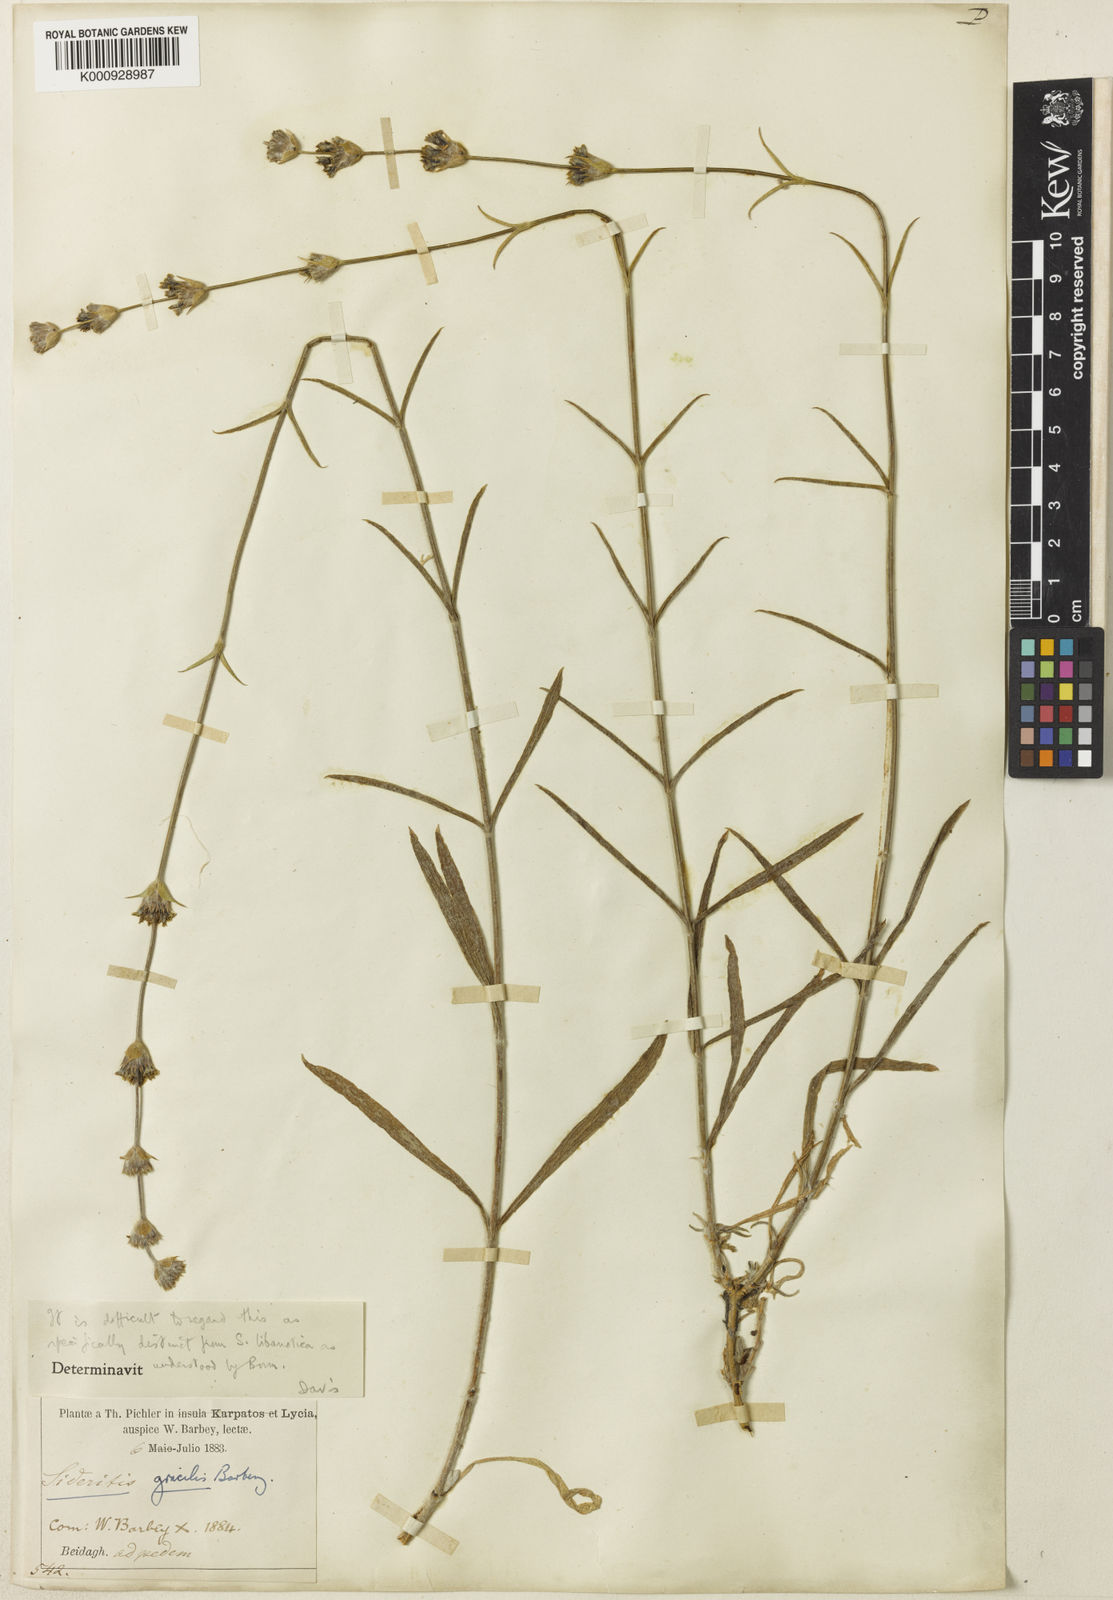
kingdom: Plantae
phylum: Tracheophyta
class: Magnoliopsida
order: Lamiales
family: Lamiaceae
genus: Sideritis
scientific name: Sideritis libanotica
